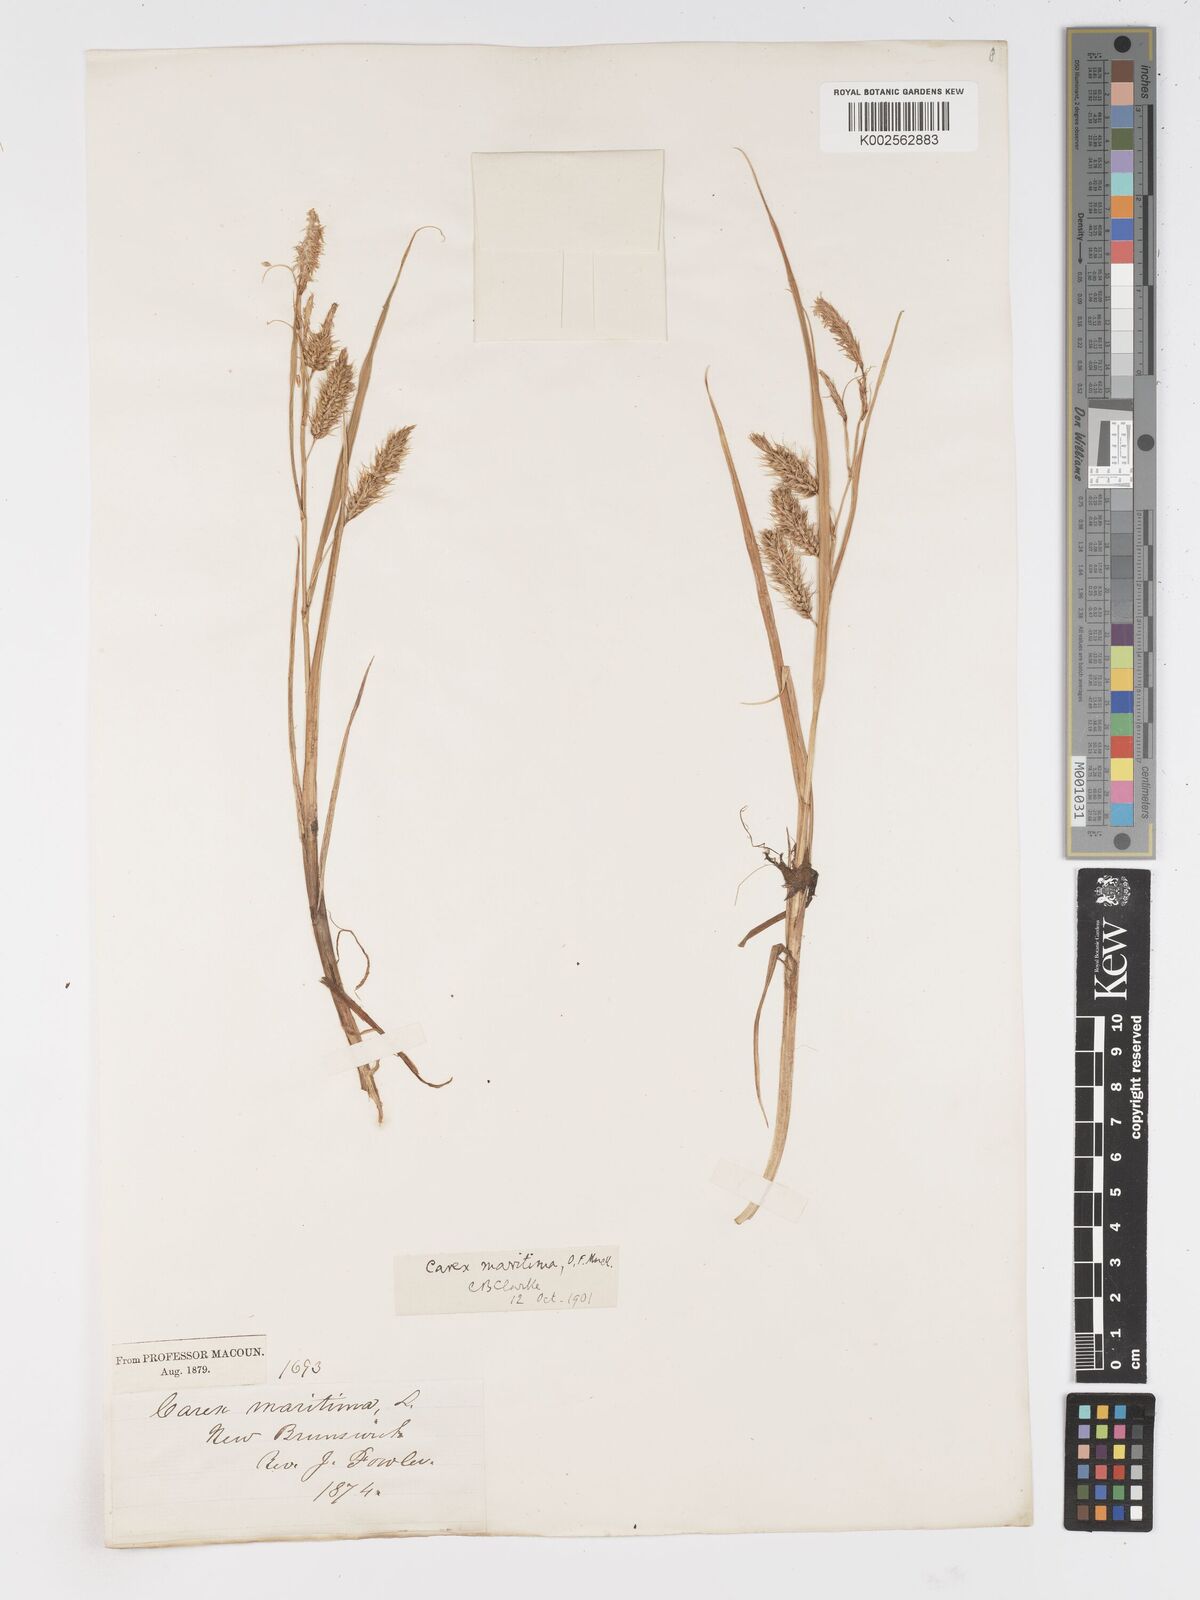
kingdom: Plantae
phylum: Tracheophyta
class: Liliopsida
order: Poales
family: Cyperaceae
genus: Carex
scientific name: Carex paleacea
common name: Chaffy sedge
